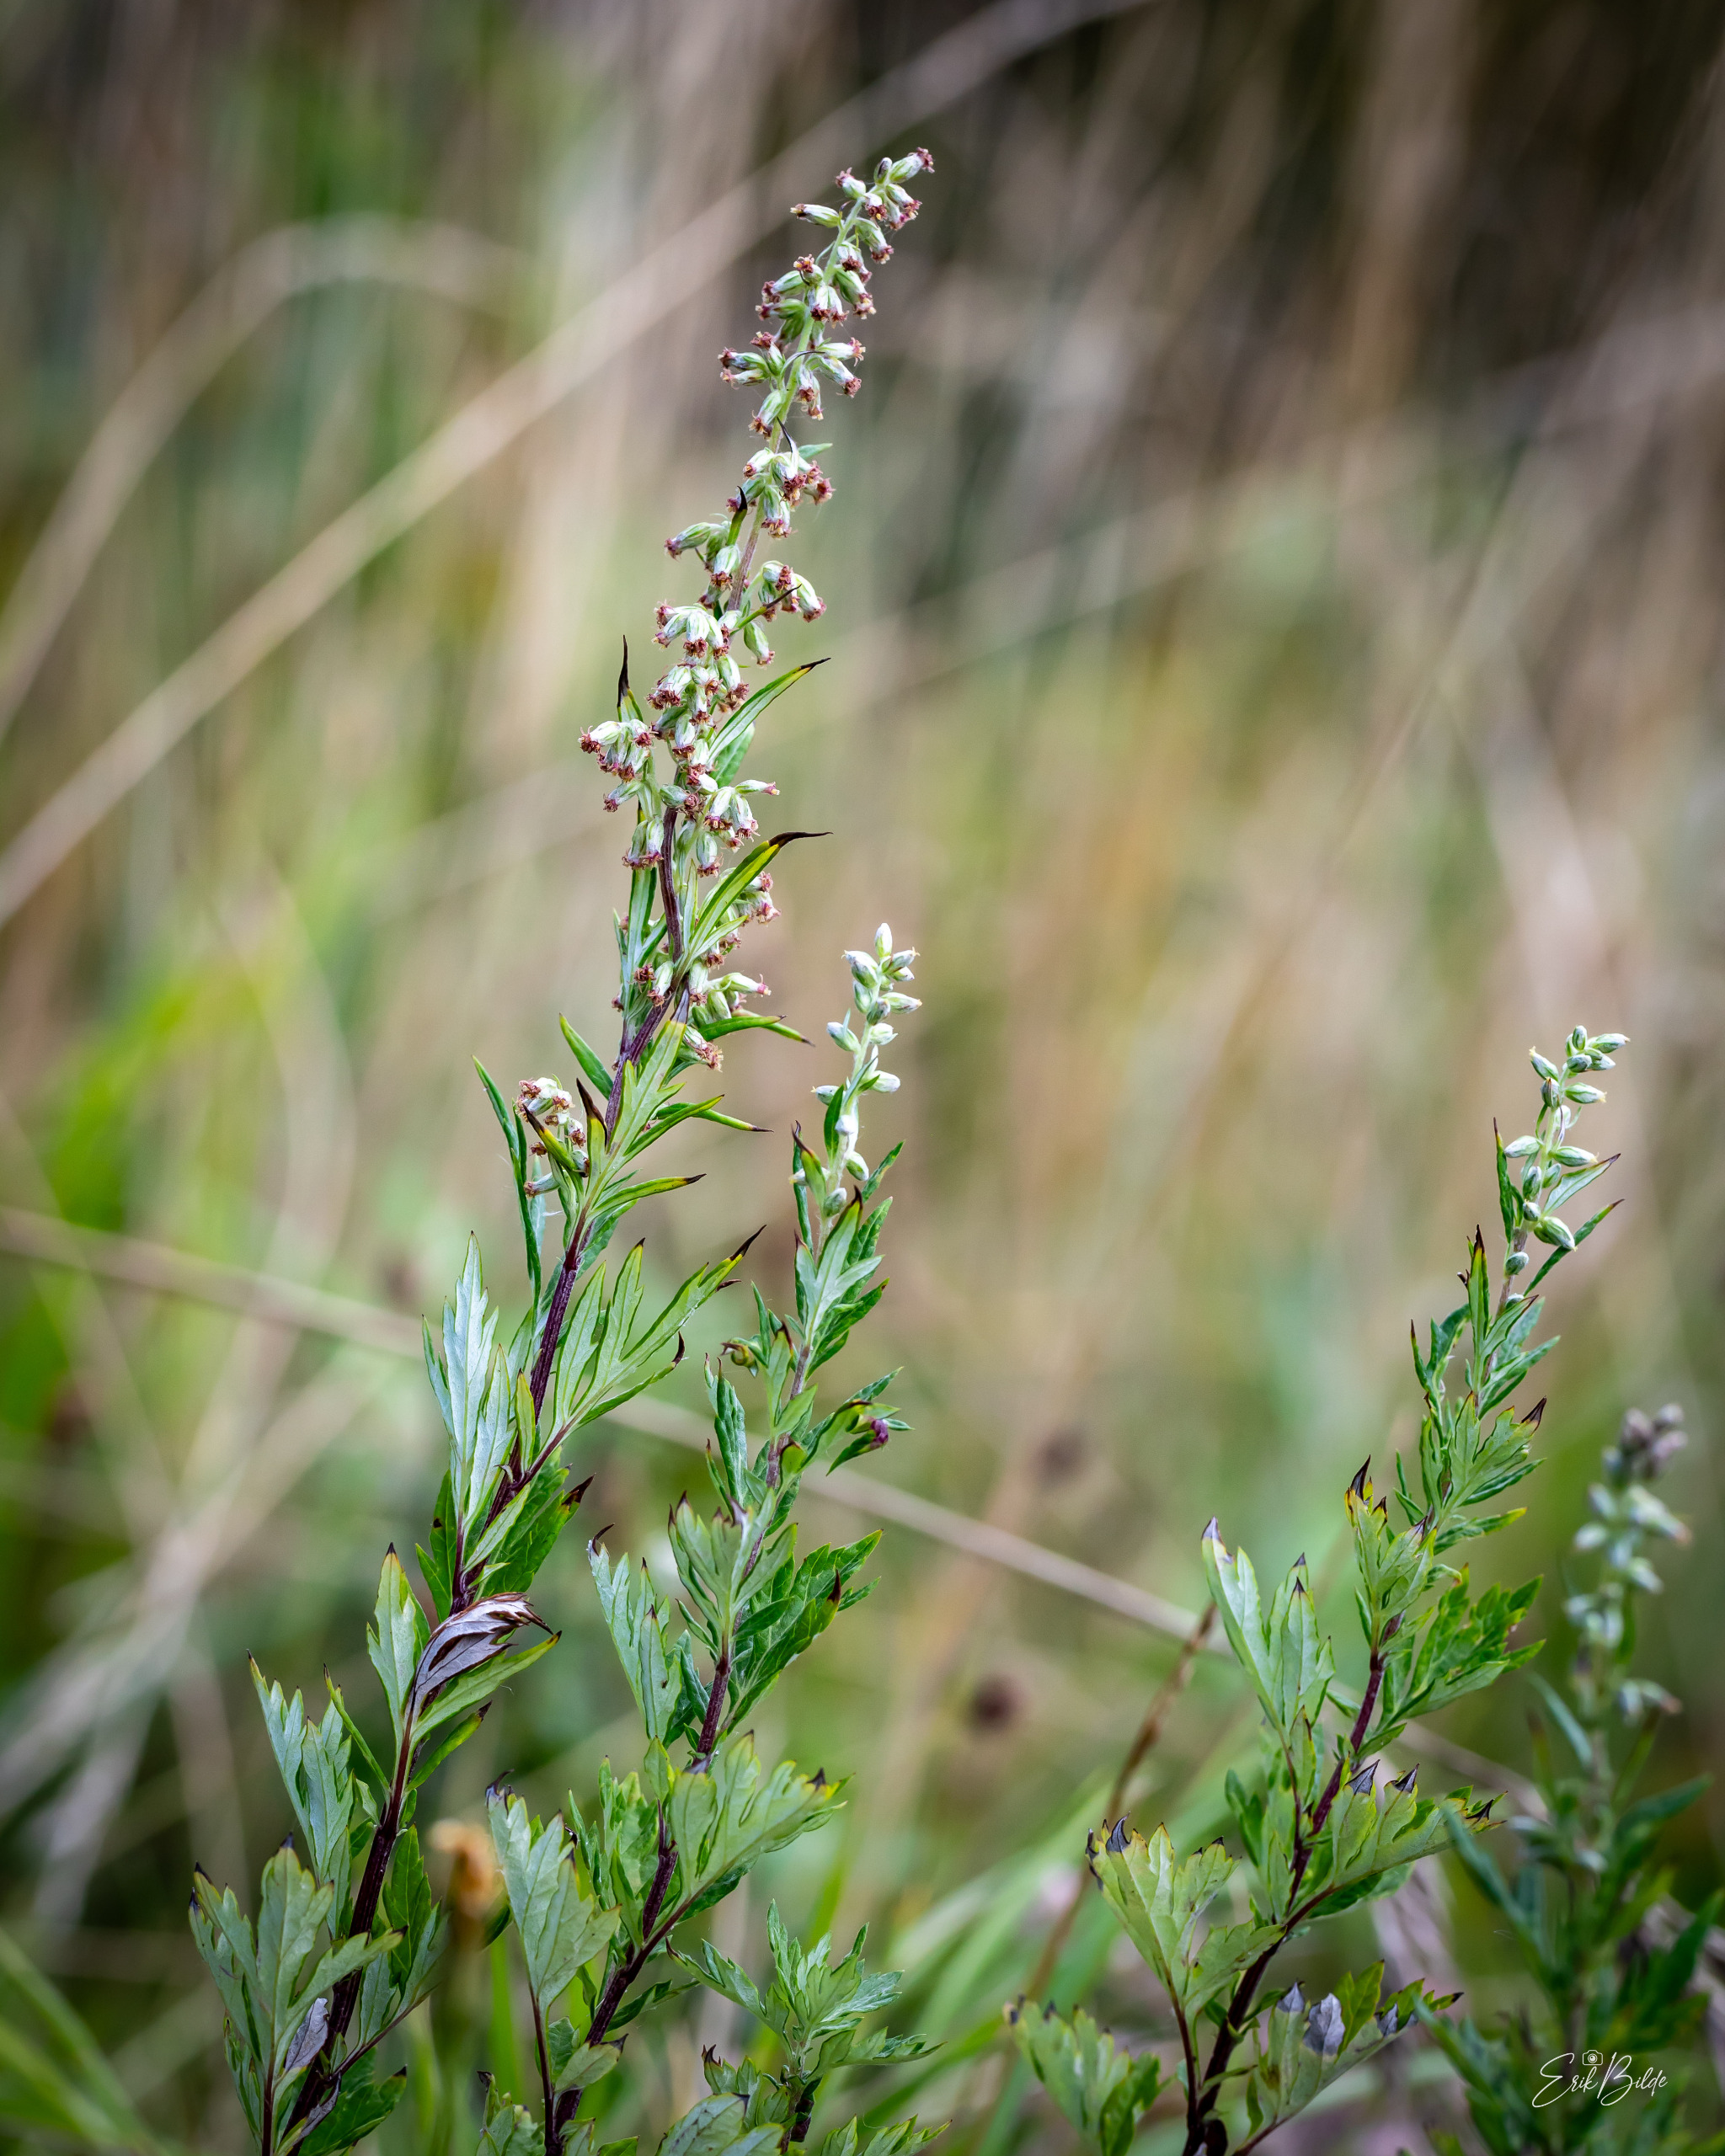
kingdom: Plantae
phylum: Tracheophyta
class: Magnoliopsida
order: Asterales
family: Asteraceae
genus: Artemisia
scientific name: Artemisia vulgaris
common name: Grå-bynke
